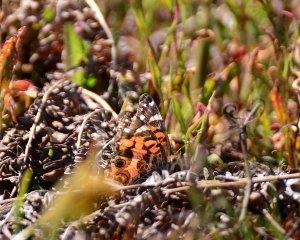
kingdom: Animalia
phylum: Arthropoda
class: Insecta
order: Lepidoptera
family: Nymphalidae
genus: Vanessa
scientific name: Vanessa virginiensis
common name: American Lady
